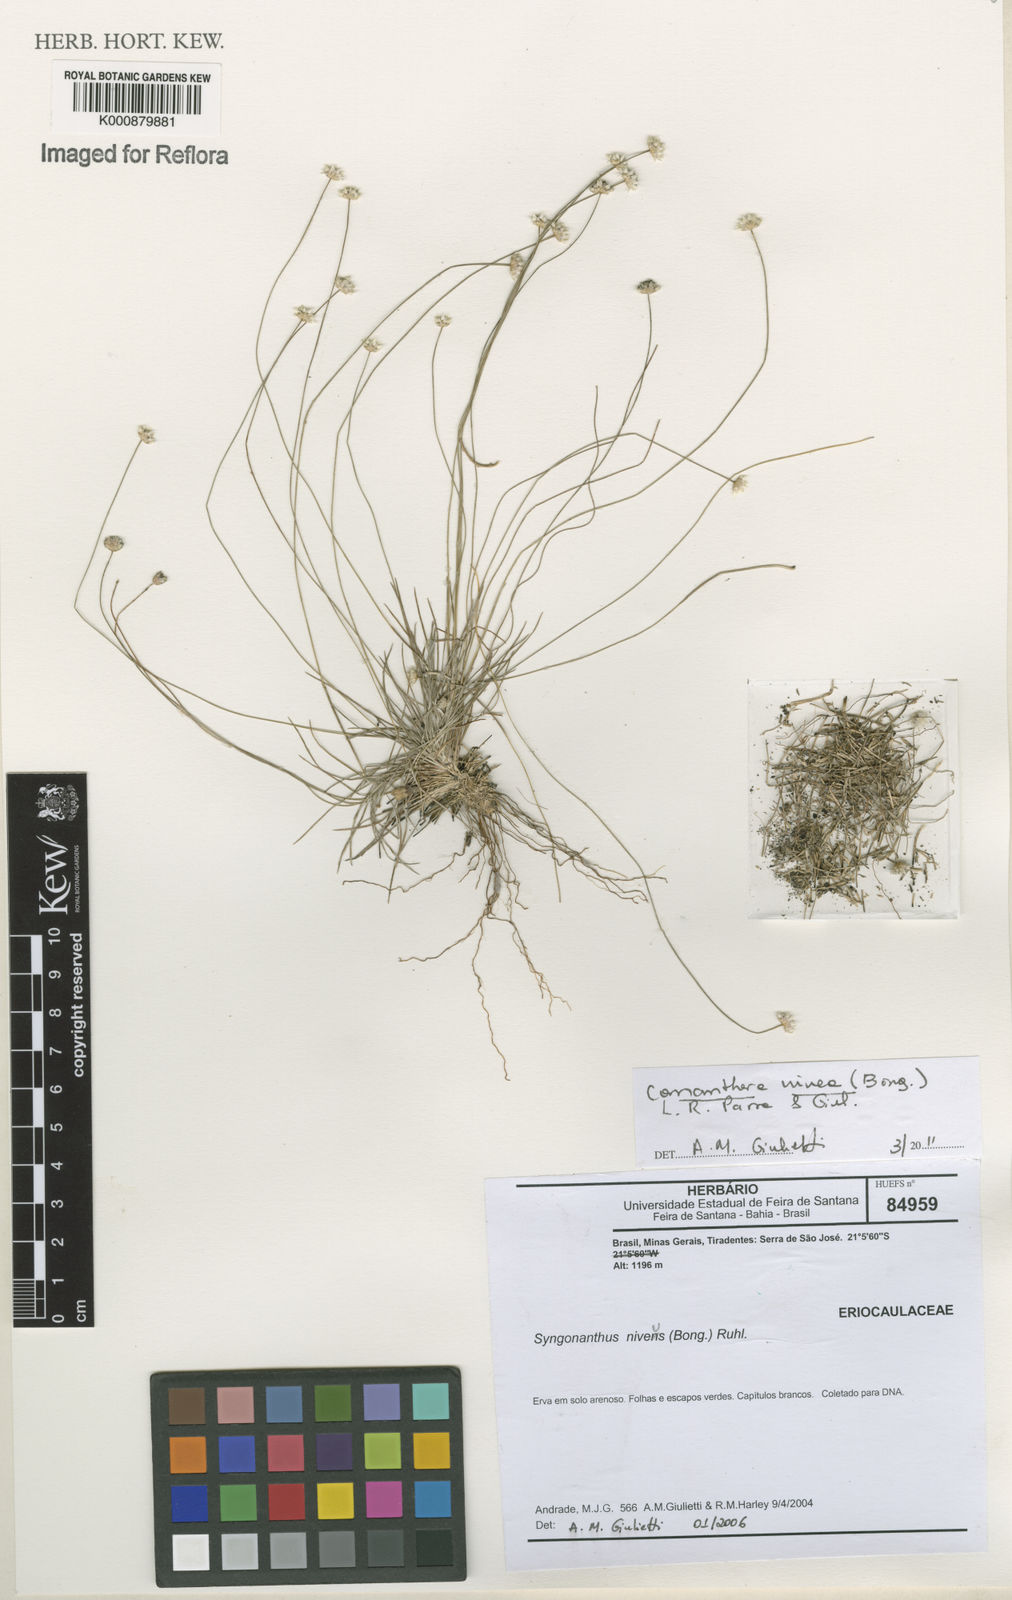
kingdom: Plantae
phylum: Tracheophyta
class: Liliopsida
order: Poales
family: Eriocaulaceae
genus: Comanthera
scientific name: Comanthera nivea
